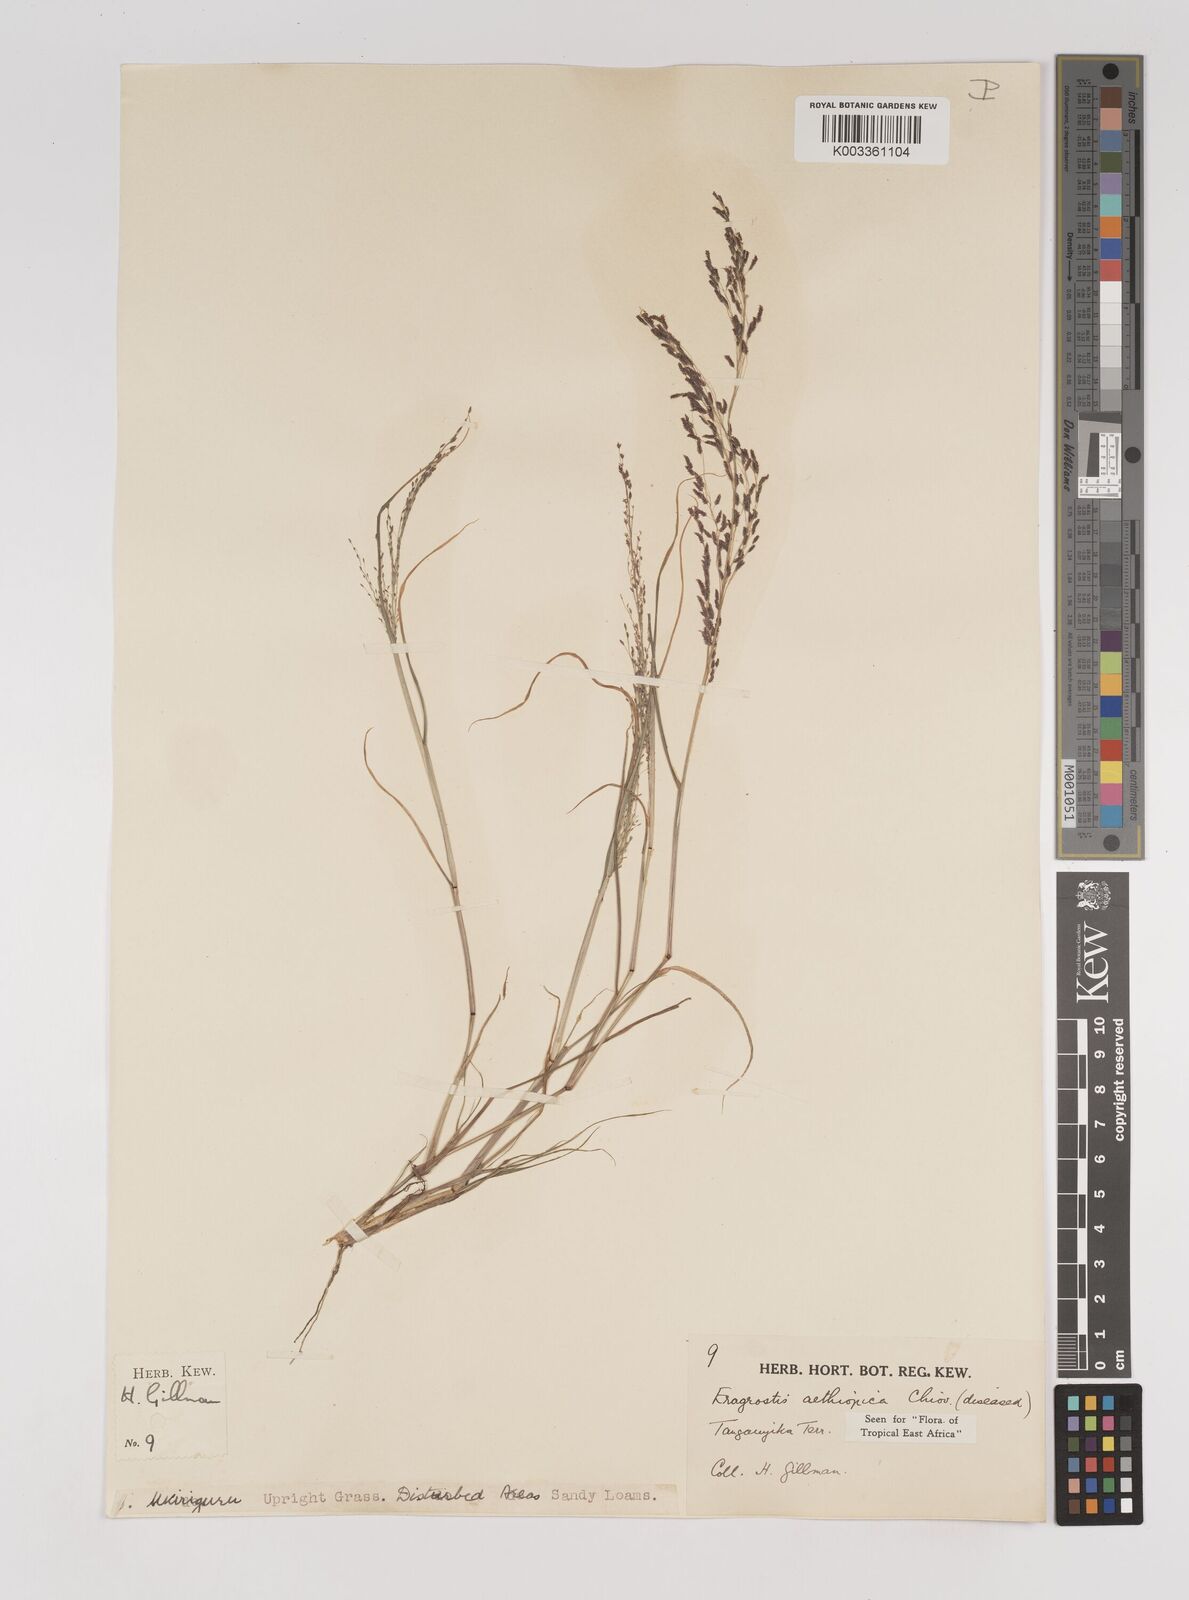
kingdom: Plantae
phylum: Tracheophyta
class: Liliopsida
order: Poales
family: Poaceae
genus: Eragrostis
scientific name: Eragrostis aethiopica
